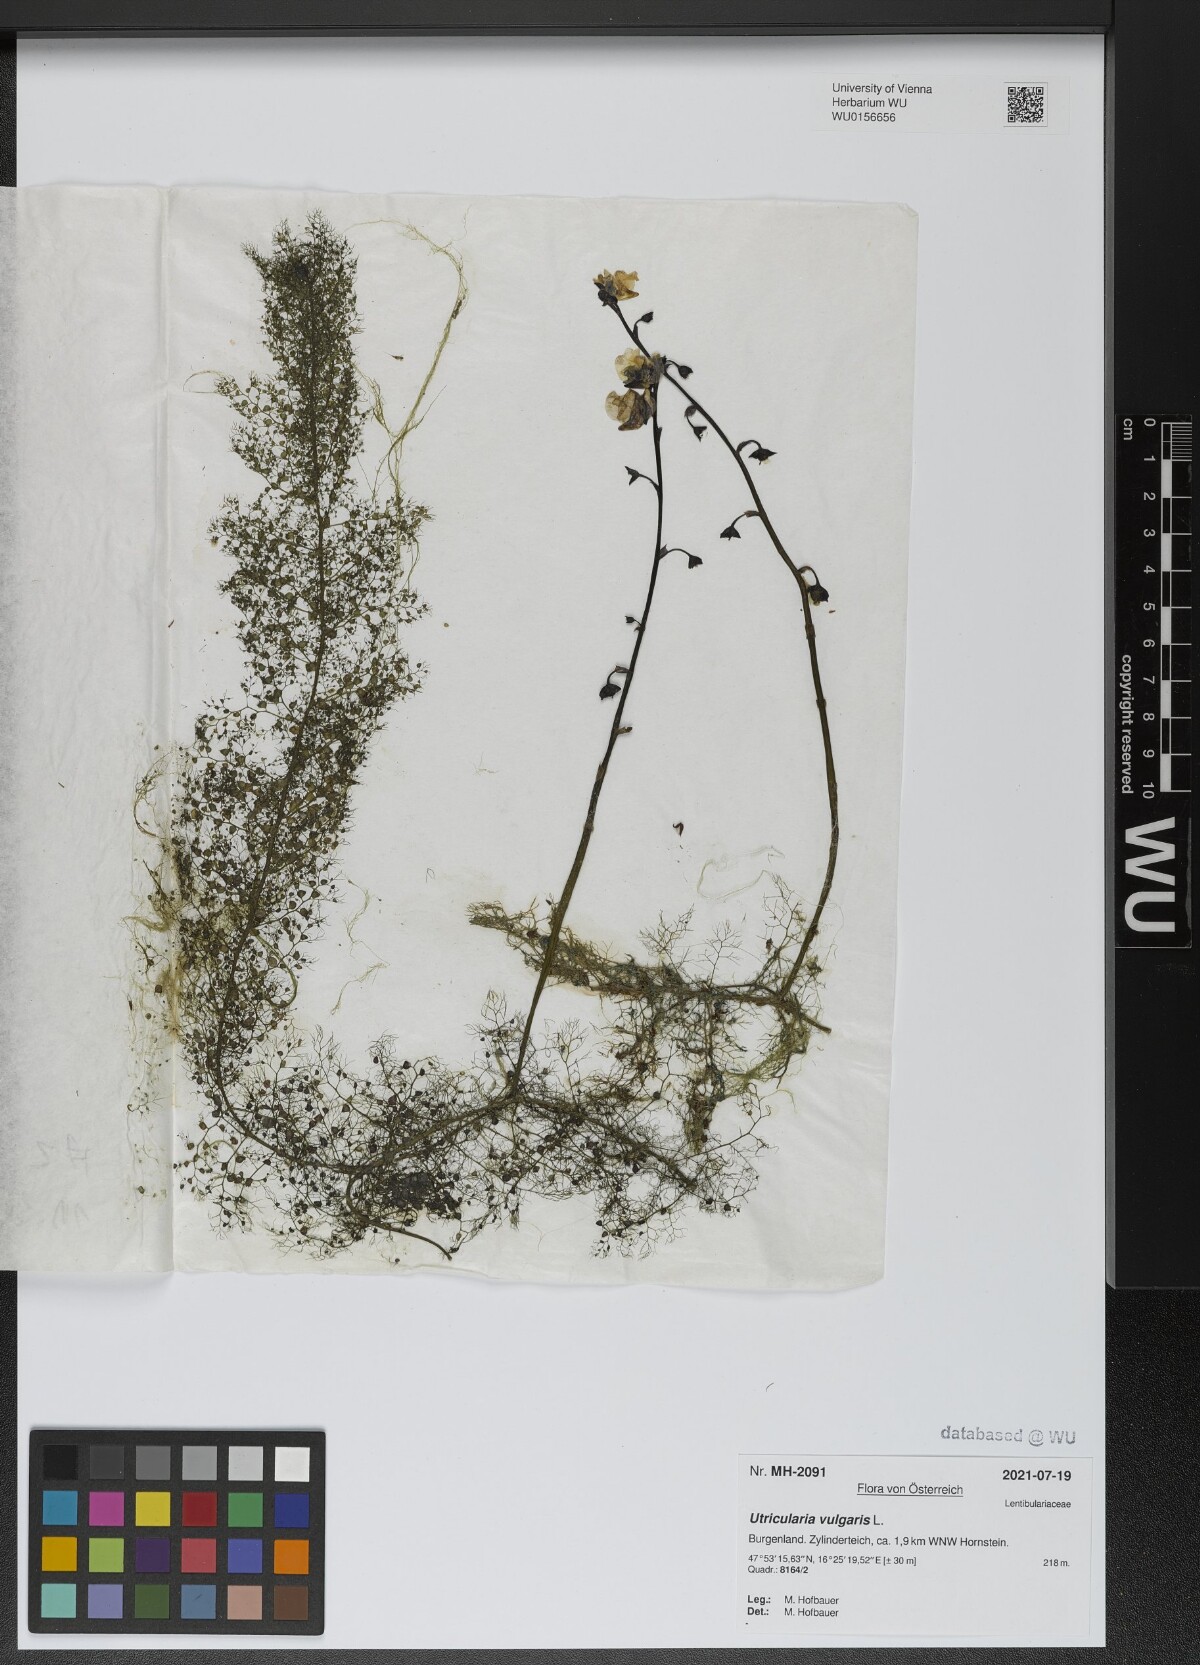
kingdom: Plantae
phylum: Tracheophyta
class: Magnoliopsida
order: Lamiales
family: Lentibulariaceae
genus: Utricularia
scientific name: Utricularia vulgaris
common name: Greater bladderwort
